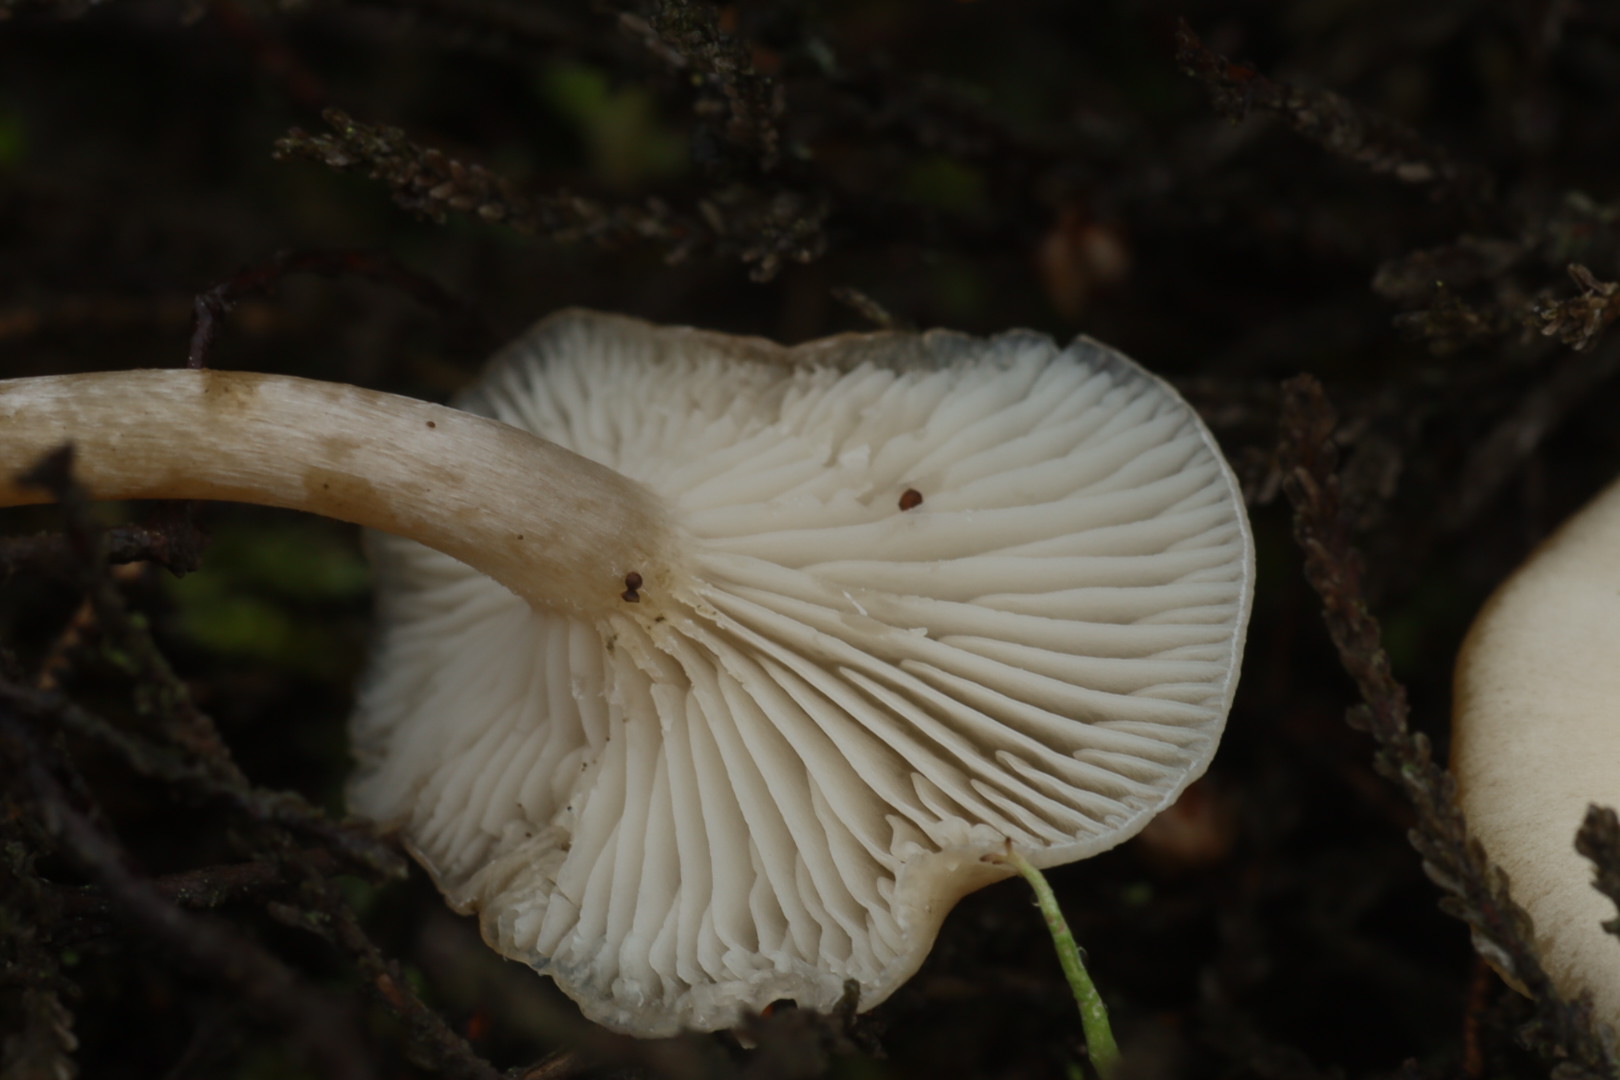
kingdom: Fungi
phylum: Basidiomycota
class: Agaricomycetes
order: Agaricales
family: Tricholomataceae
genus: Clitocybe
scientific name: Clitocybe
